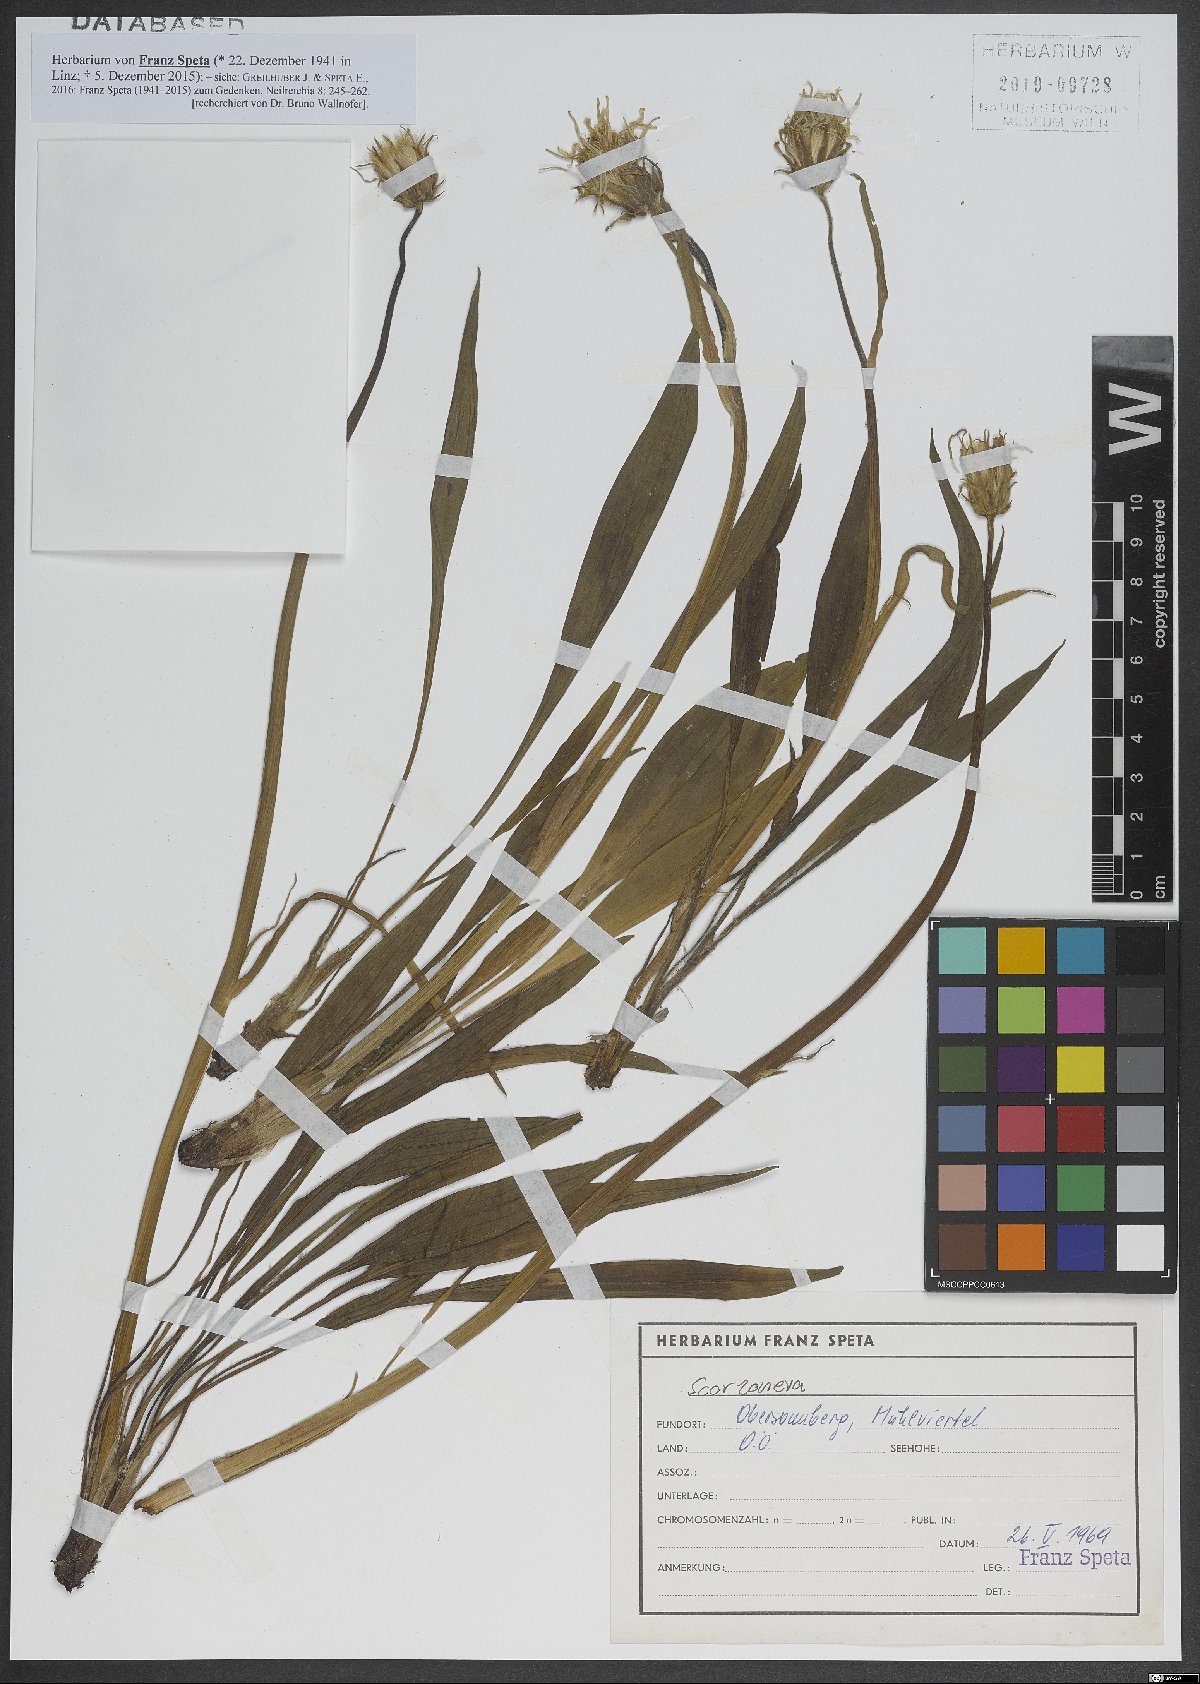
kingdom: Plantae
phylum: Tracheophyta
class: Magnoliopsida
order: Asterales
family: Asteraceae
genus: Scorzonera
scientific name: Scorzonera
